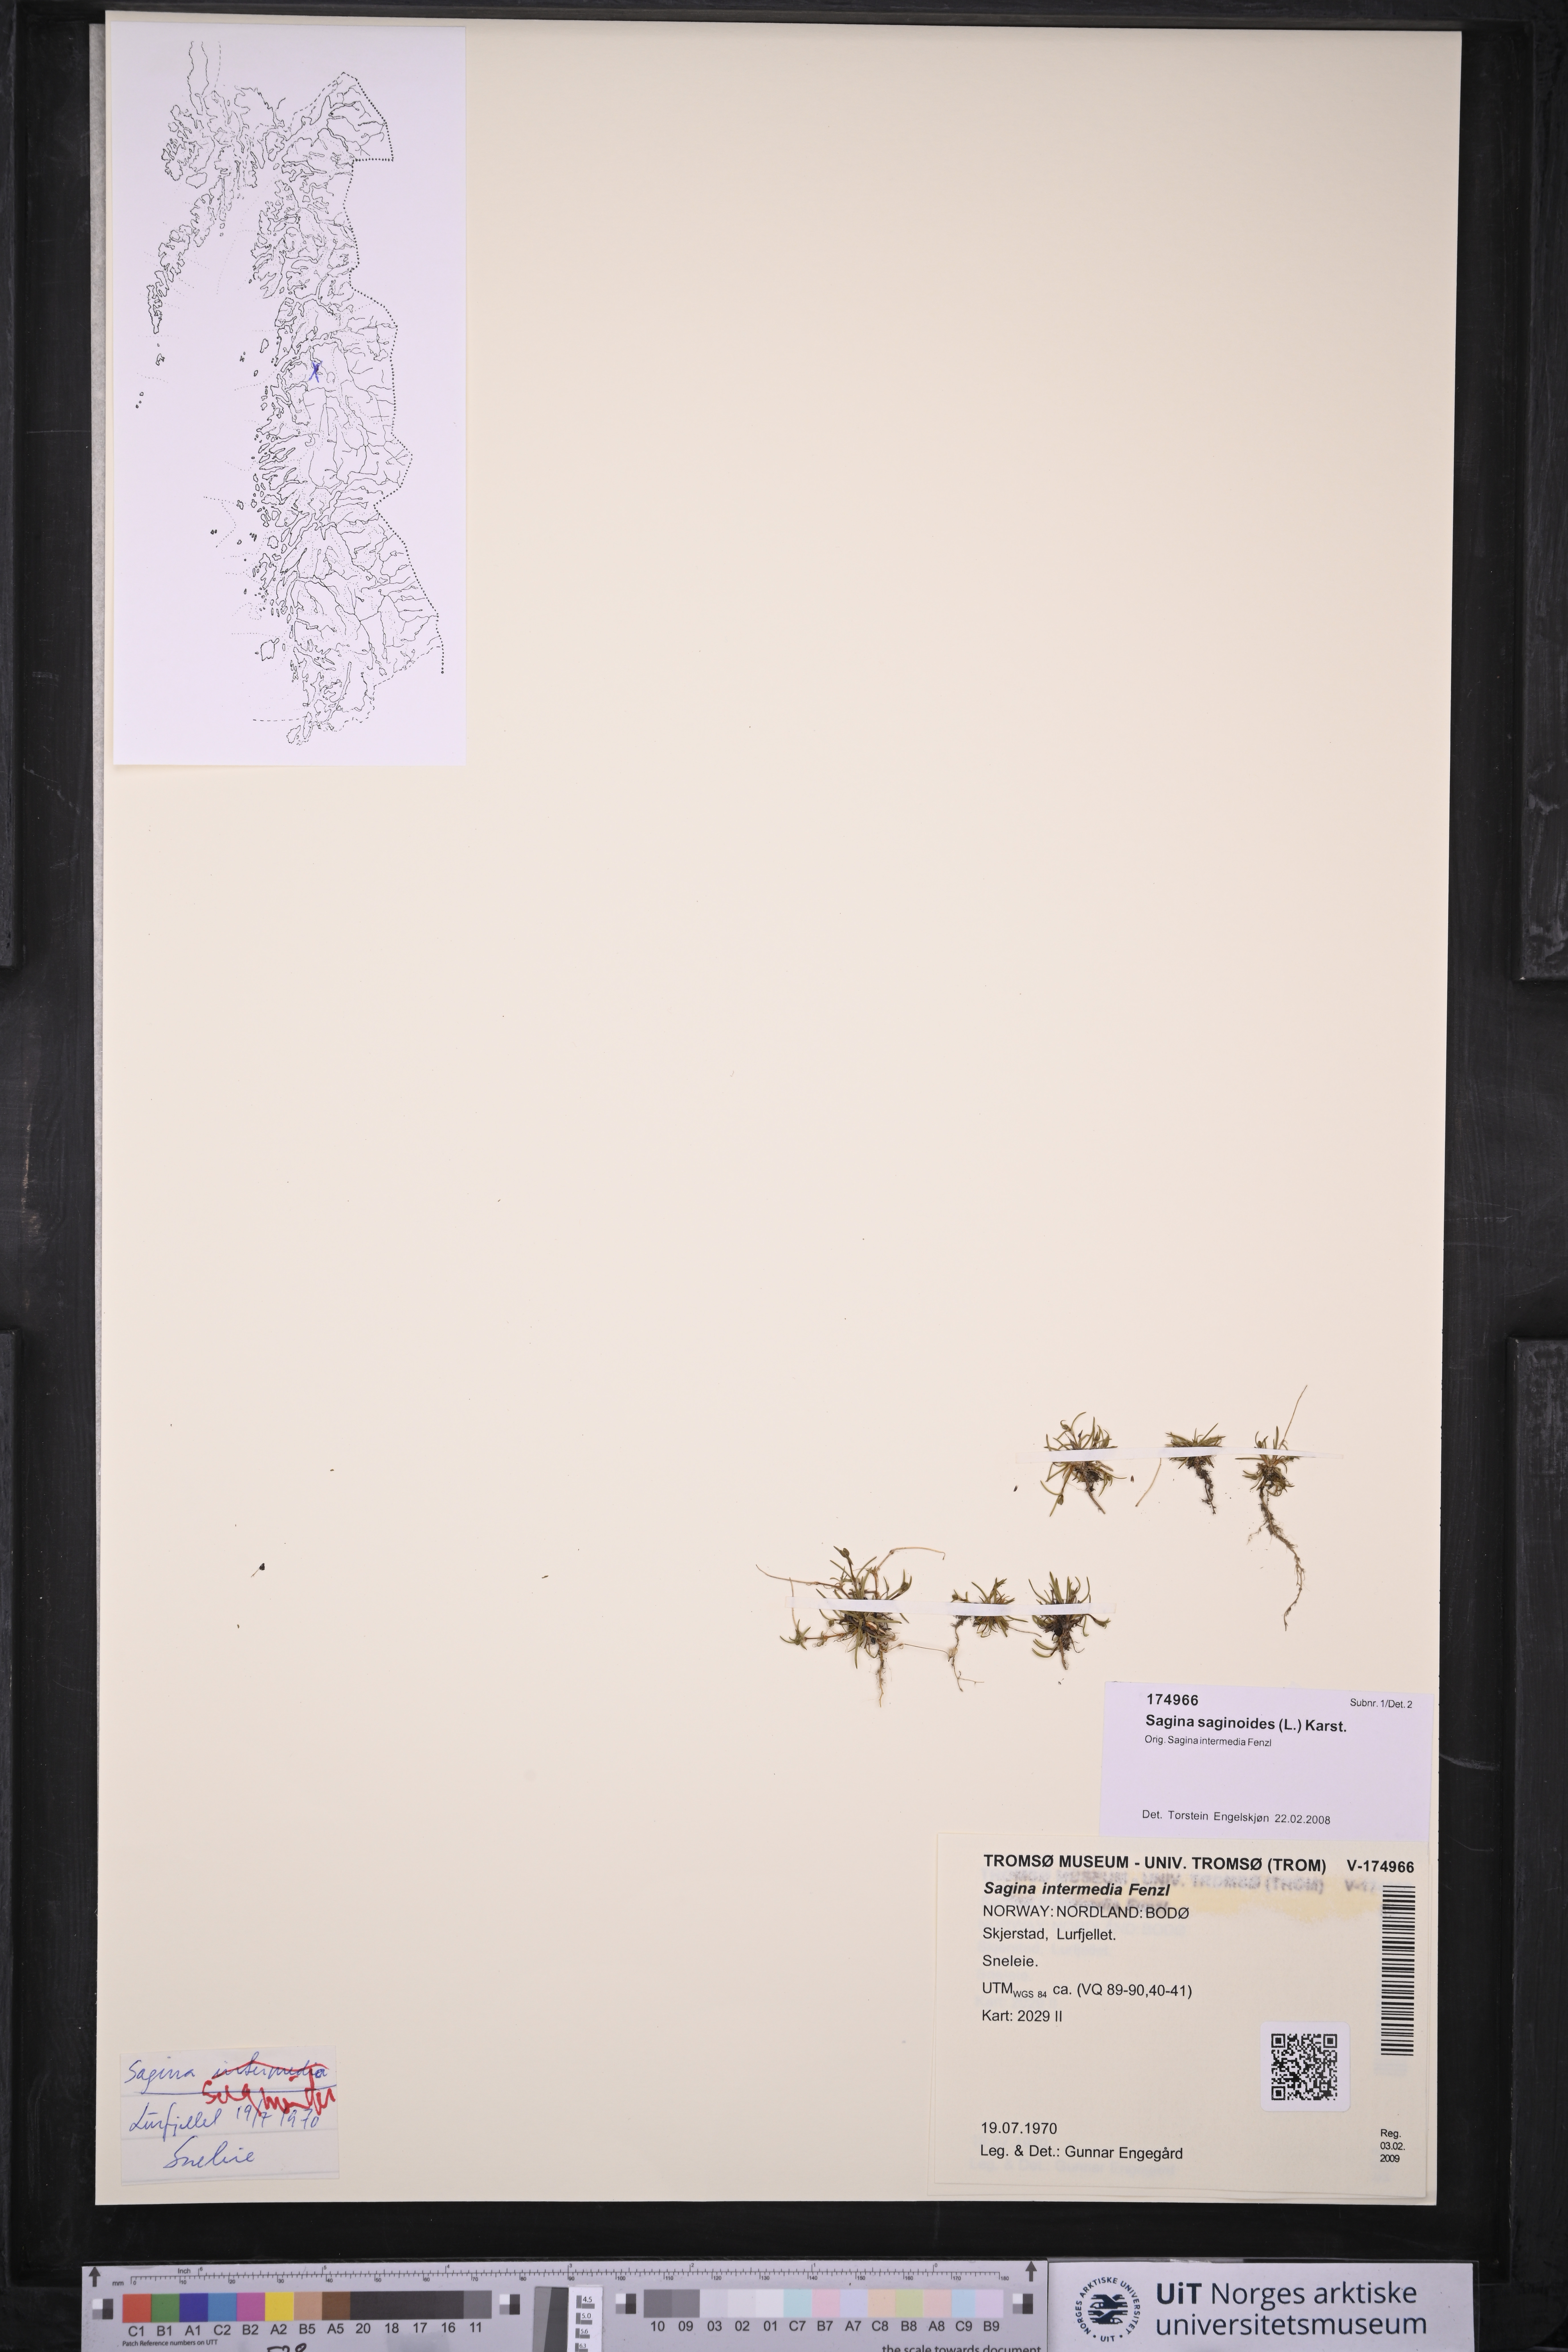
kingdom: Plantae
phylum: Tracheophyta
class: Magnoliopsida
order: Caryophyllales
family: Caryophyllaceae
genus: Sagina
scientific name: Sagina saginoides
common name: Alpine pearlwort
